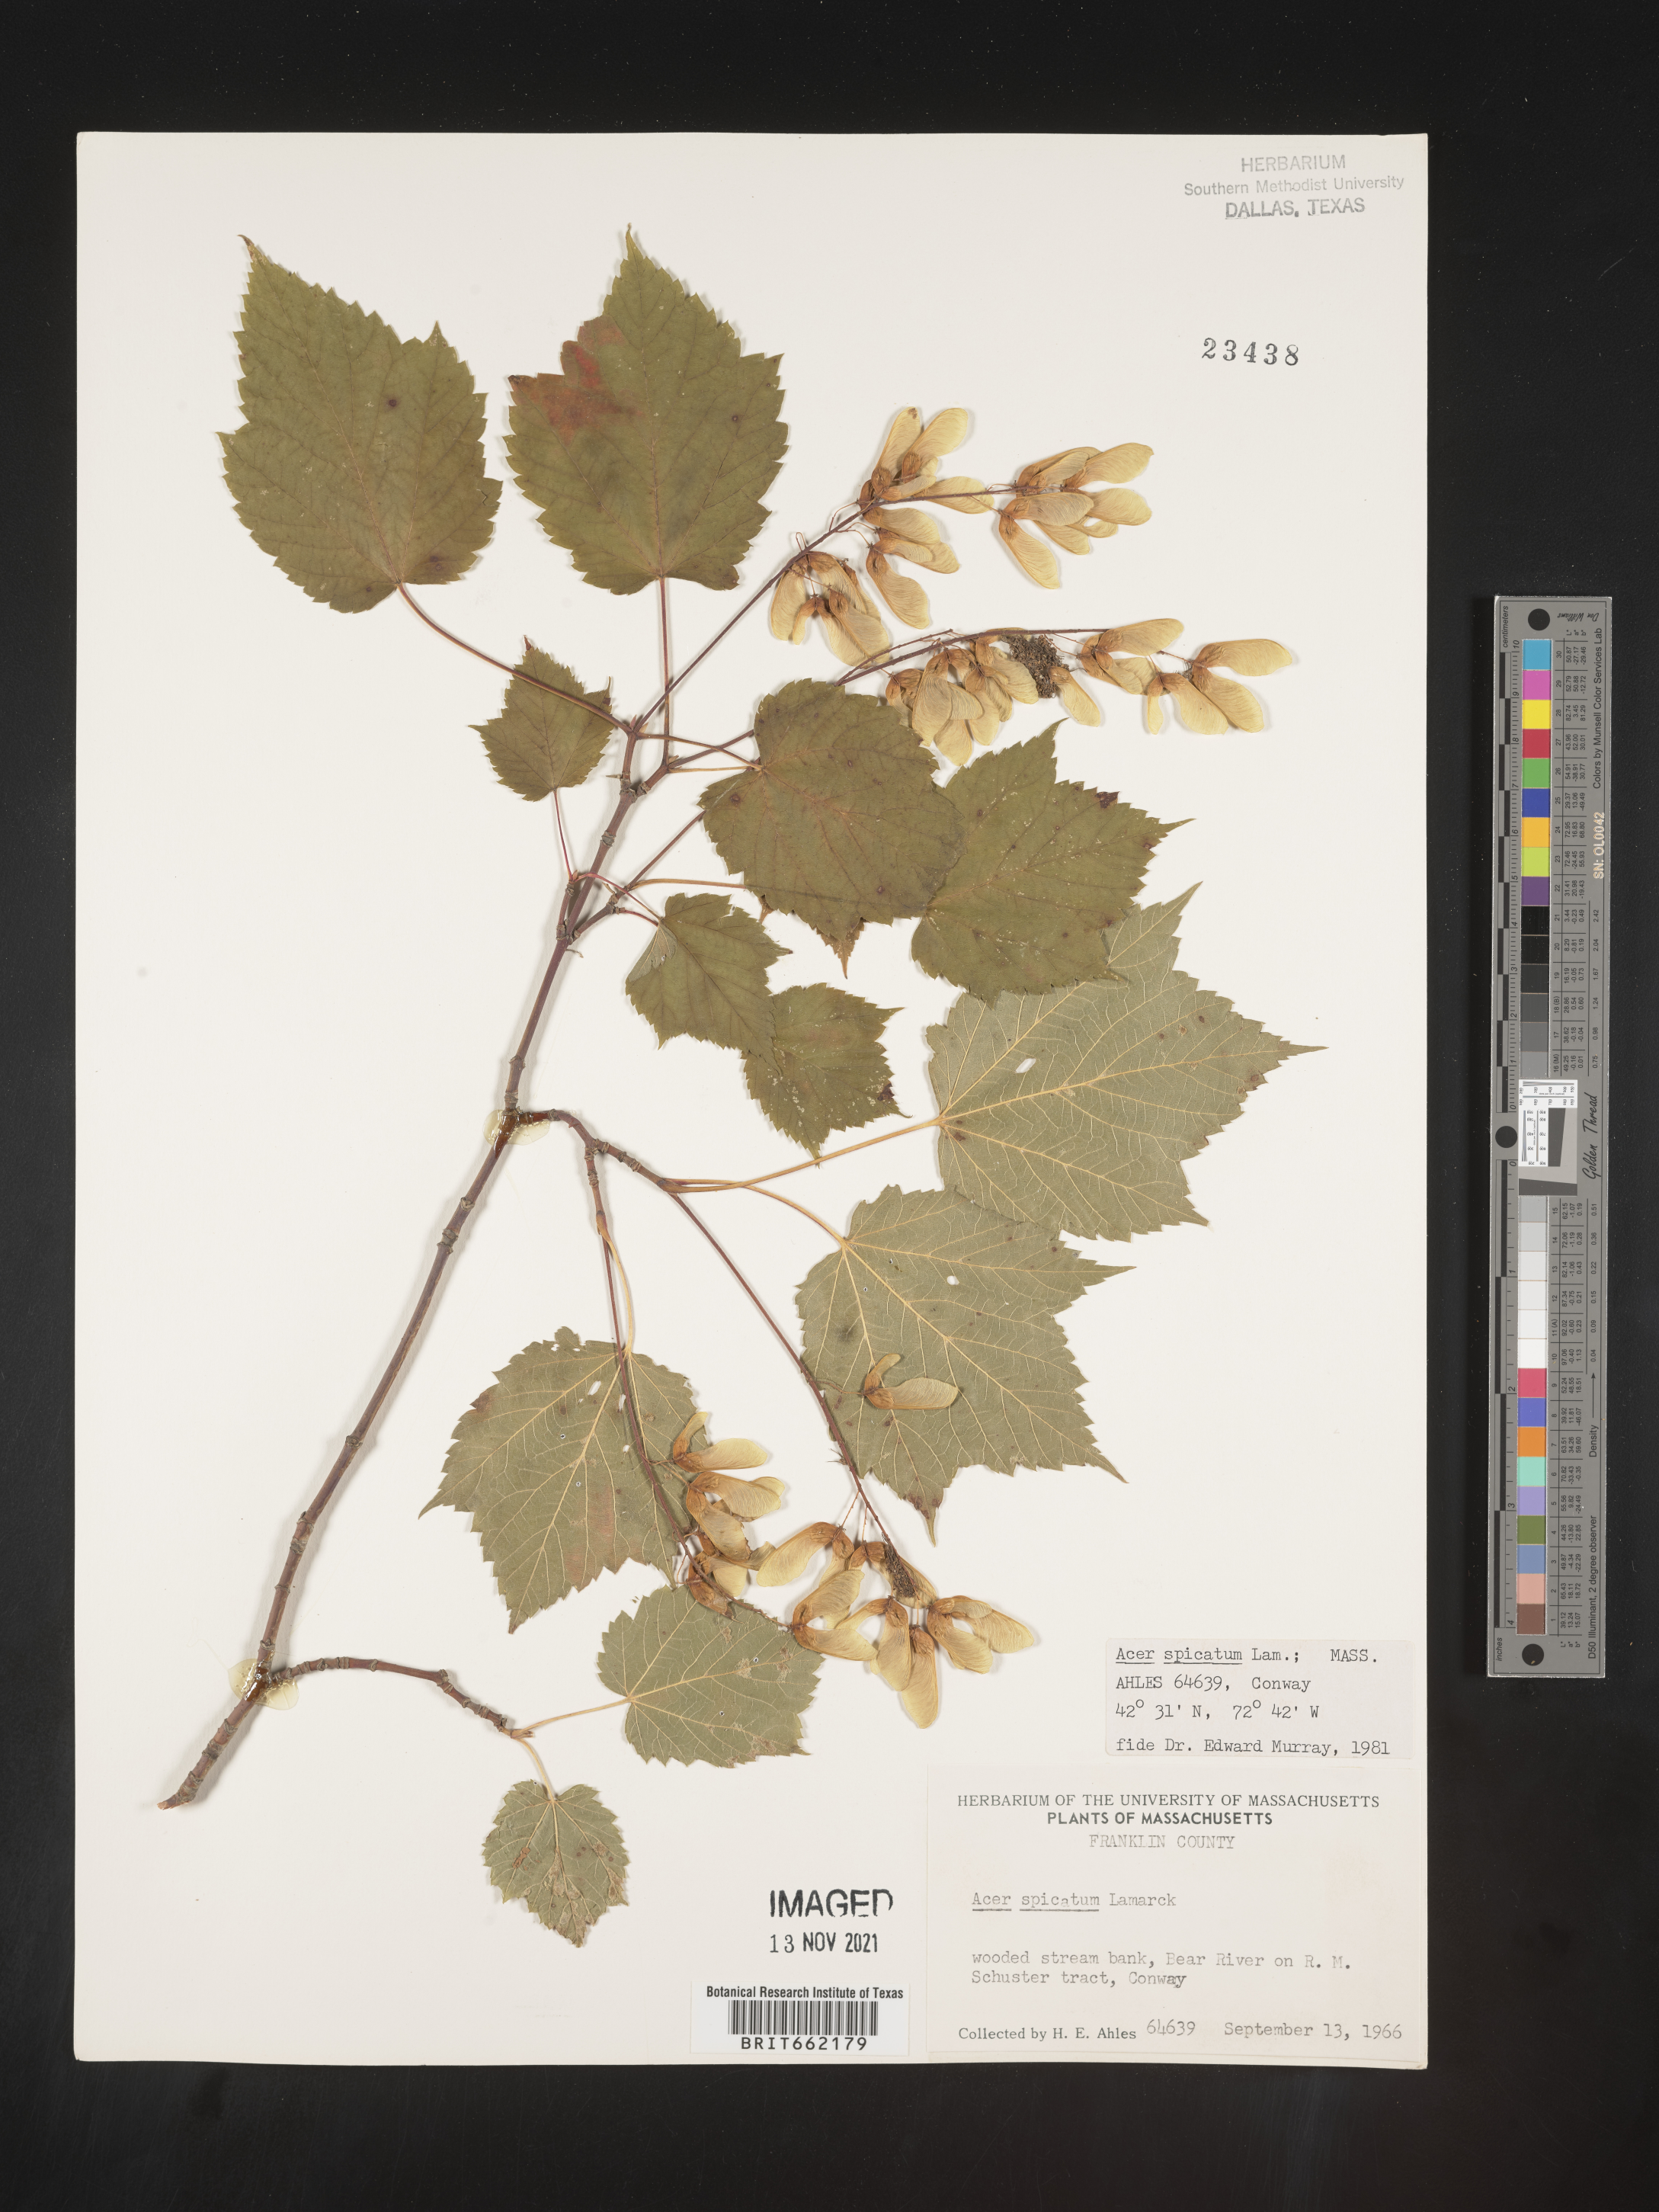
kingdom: Plantae
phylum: Tracheophyta
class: Magnoliopsida
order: Sapindales
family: Sapindaceae
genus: Acer
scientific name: Acer spicatum
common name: Mountain maple
